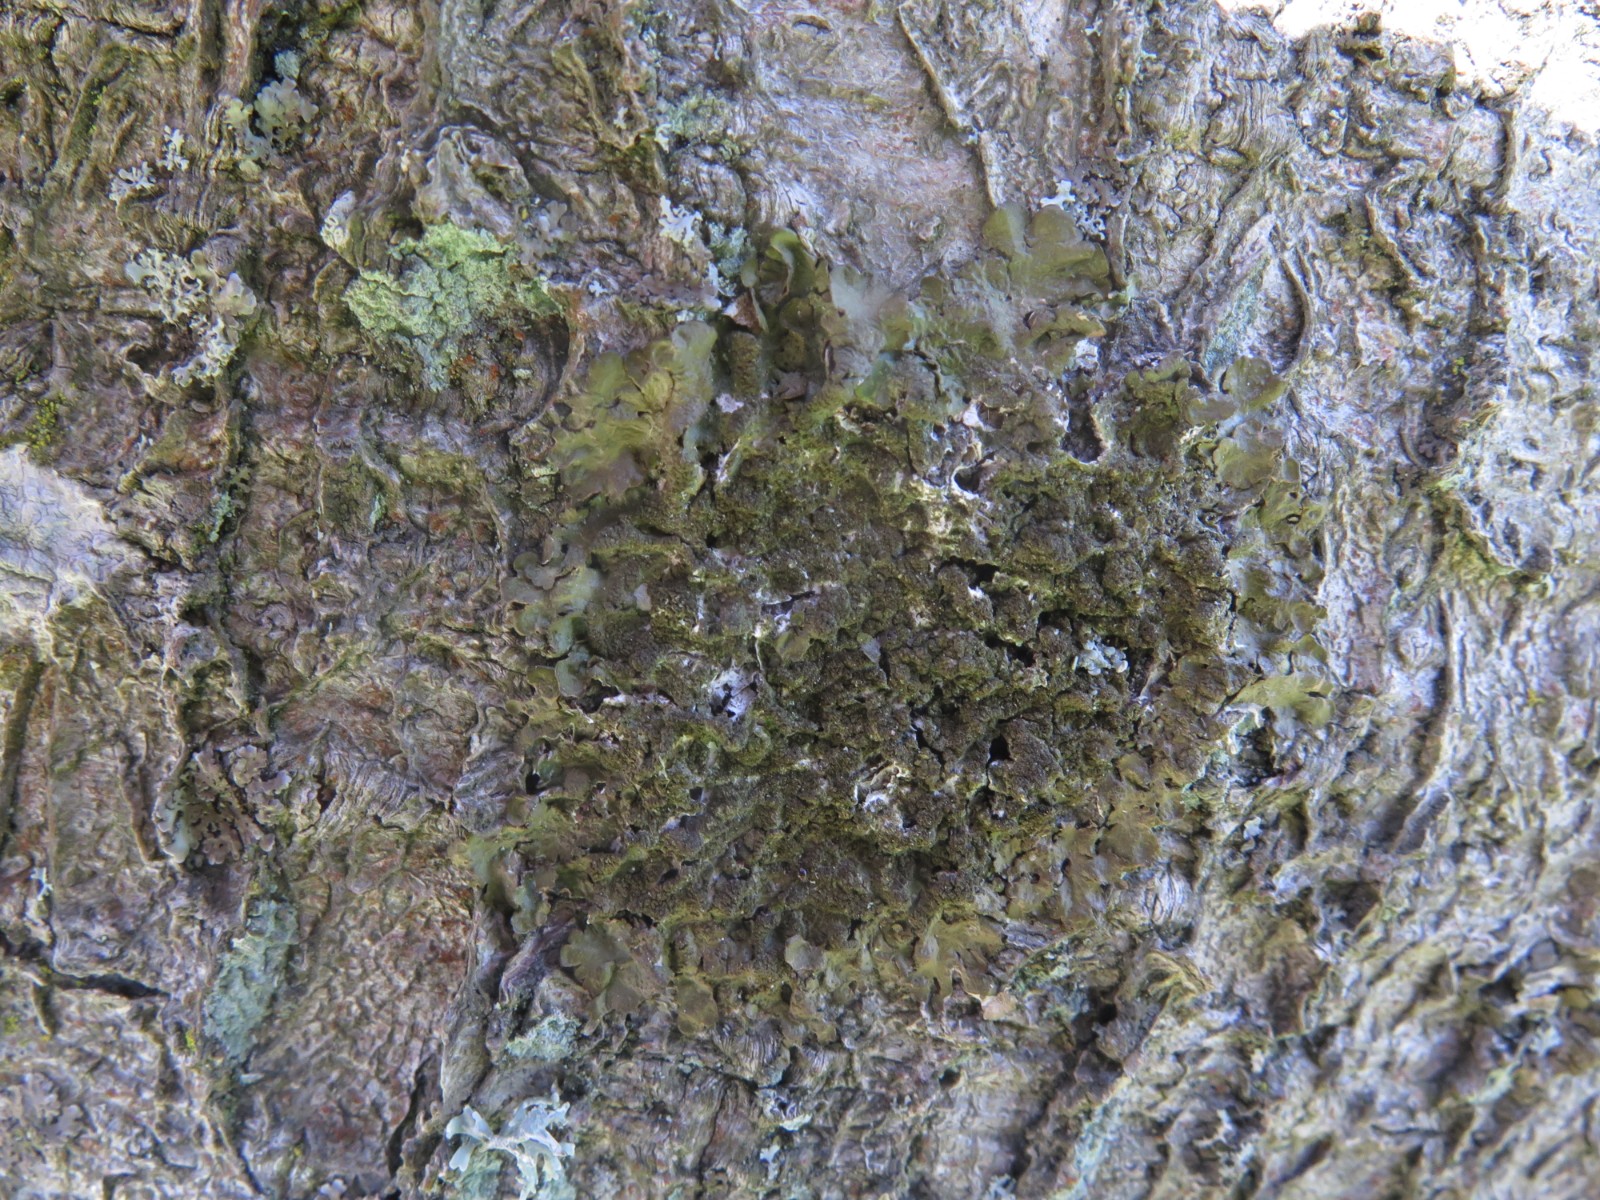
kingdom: Fungi
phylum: Ascomycota
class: Lecanoromycetes
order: Lecanorales
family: Parmeliaceae
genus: Melanelixia
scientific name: Melanelixia subaurifera
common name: guldpudret skållav
